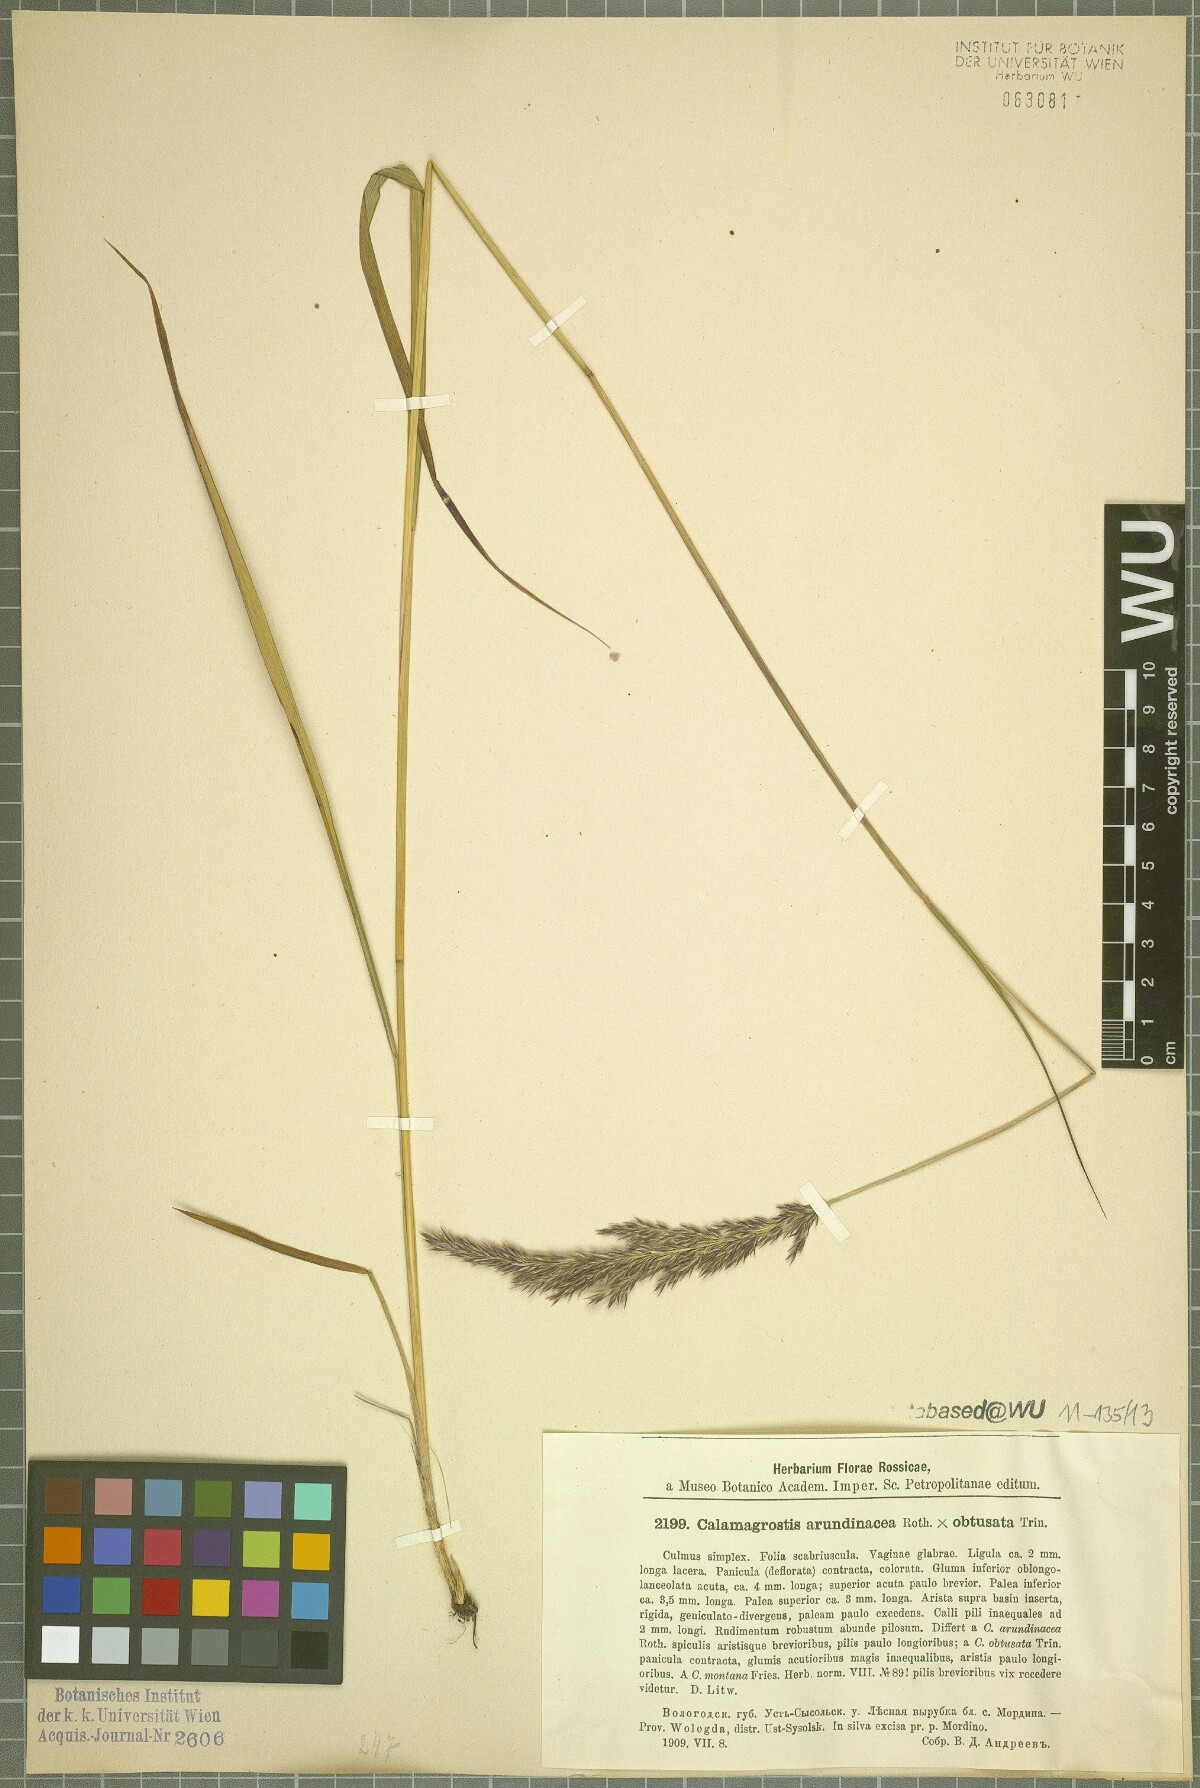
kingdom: Plantae
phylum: Tracheophyta
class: Liliopsida
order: Poales
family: Poaceae
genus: Calamagrostis
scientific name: Calamagrostis
